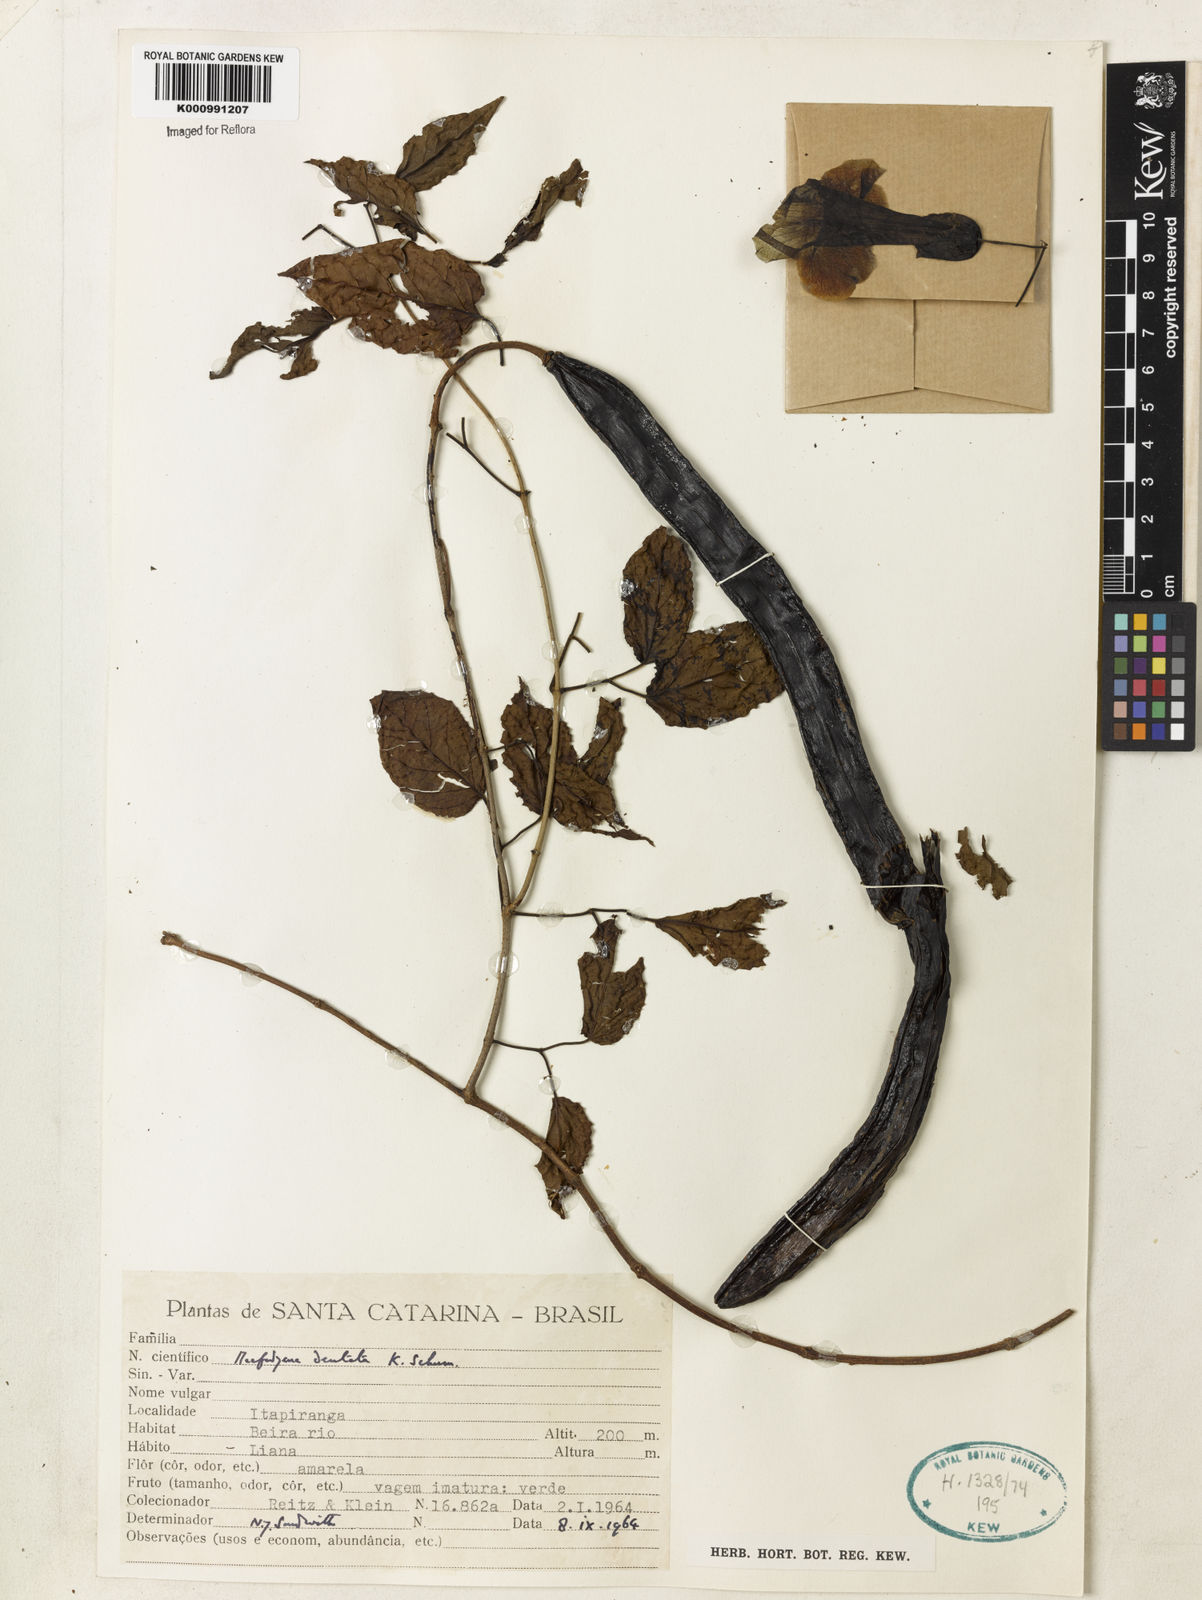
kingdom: Plantae
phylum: Tracheophyta
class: Magnoliopsida
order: Lamiales
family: Bignoniaceae
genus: Dolichandra
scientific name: Dolichandra dentata
